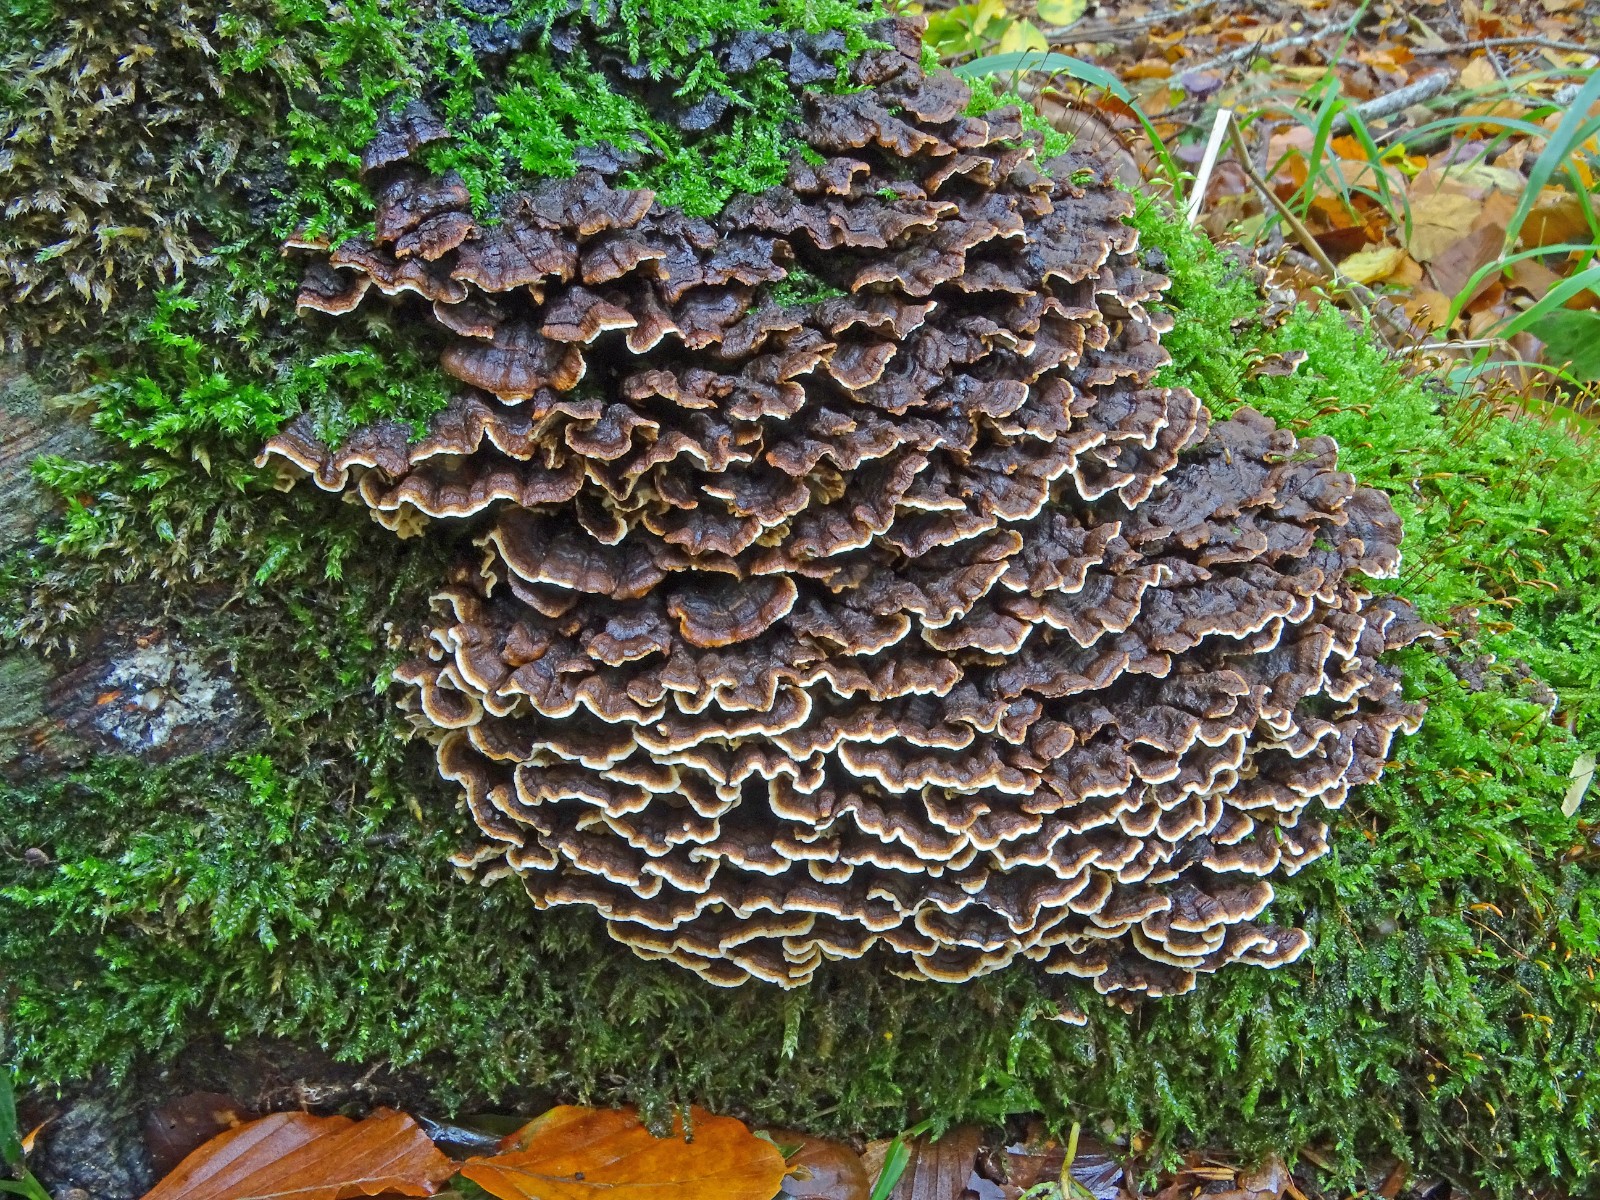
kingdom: Fungi
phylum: Basidiomycota
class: Agaricomycetes
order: Russulales
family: Hericiaceae
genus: Laxitextum
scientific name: Laxitextum bicolor
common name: tvefarvet filtskind
